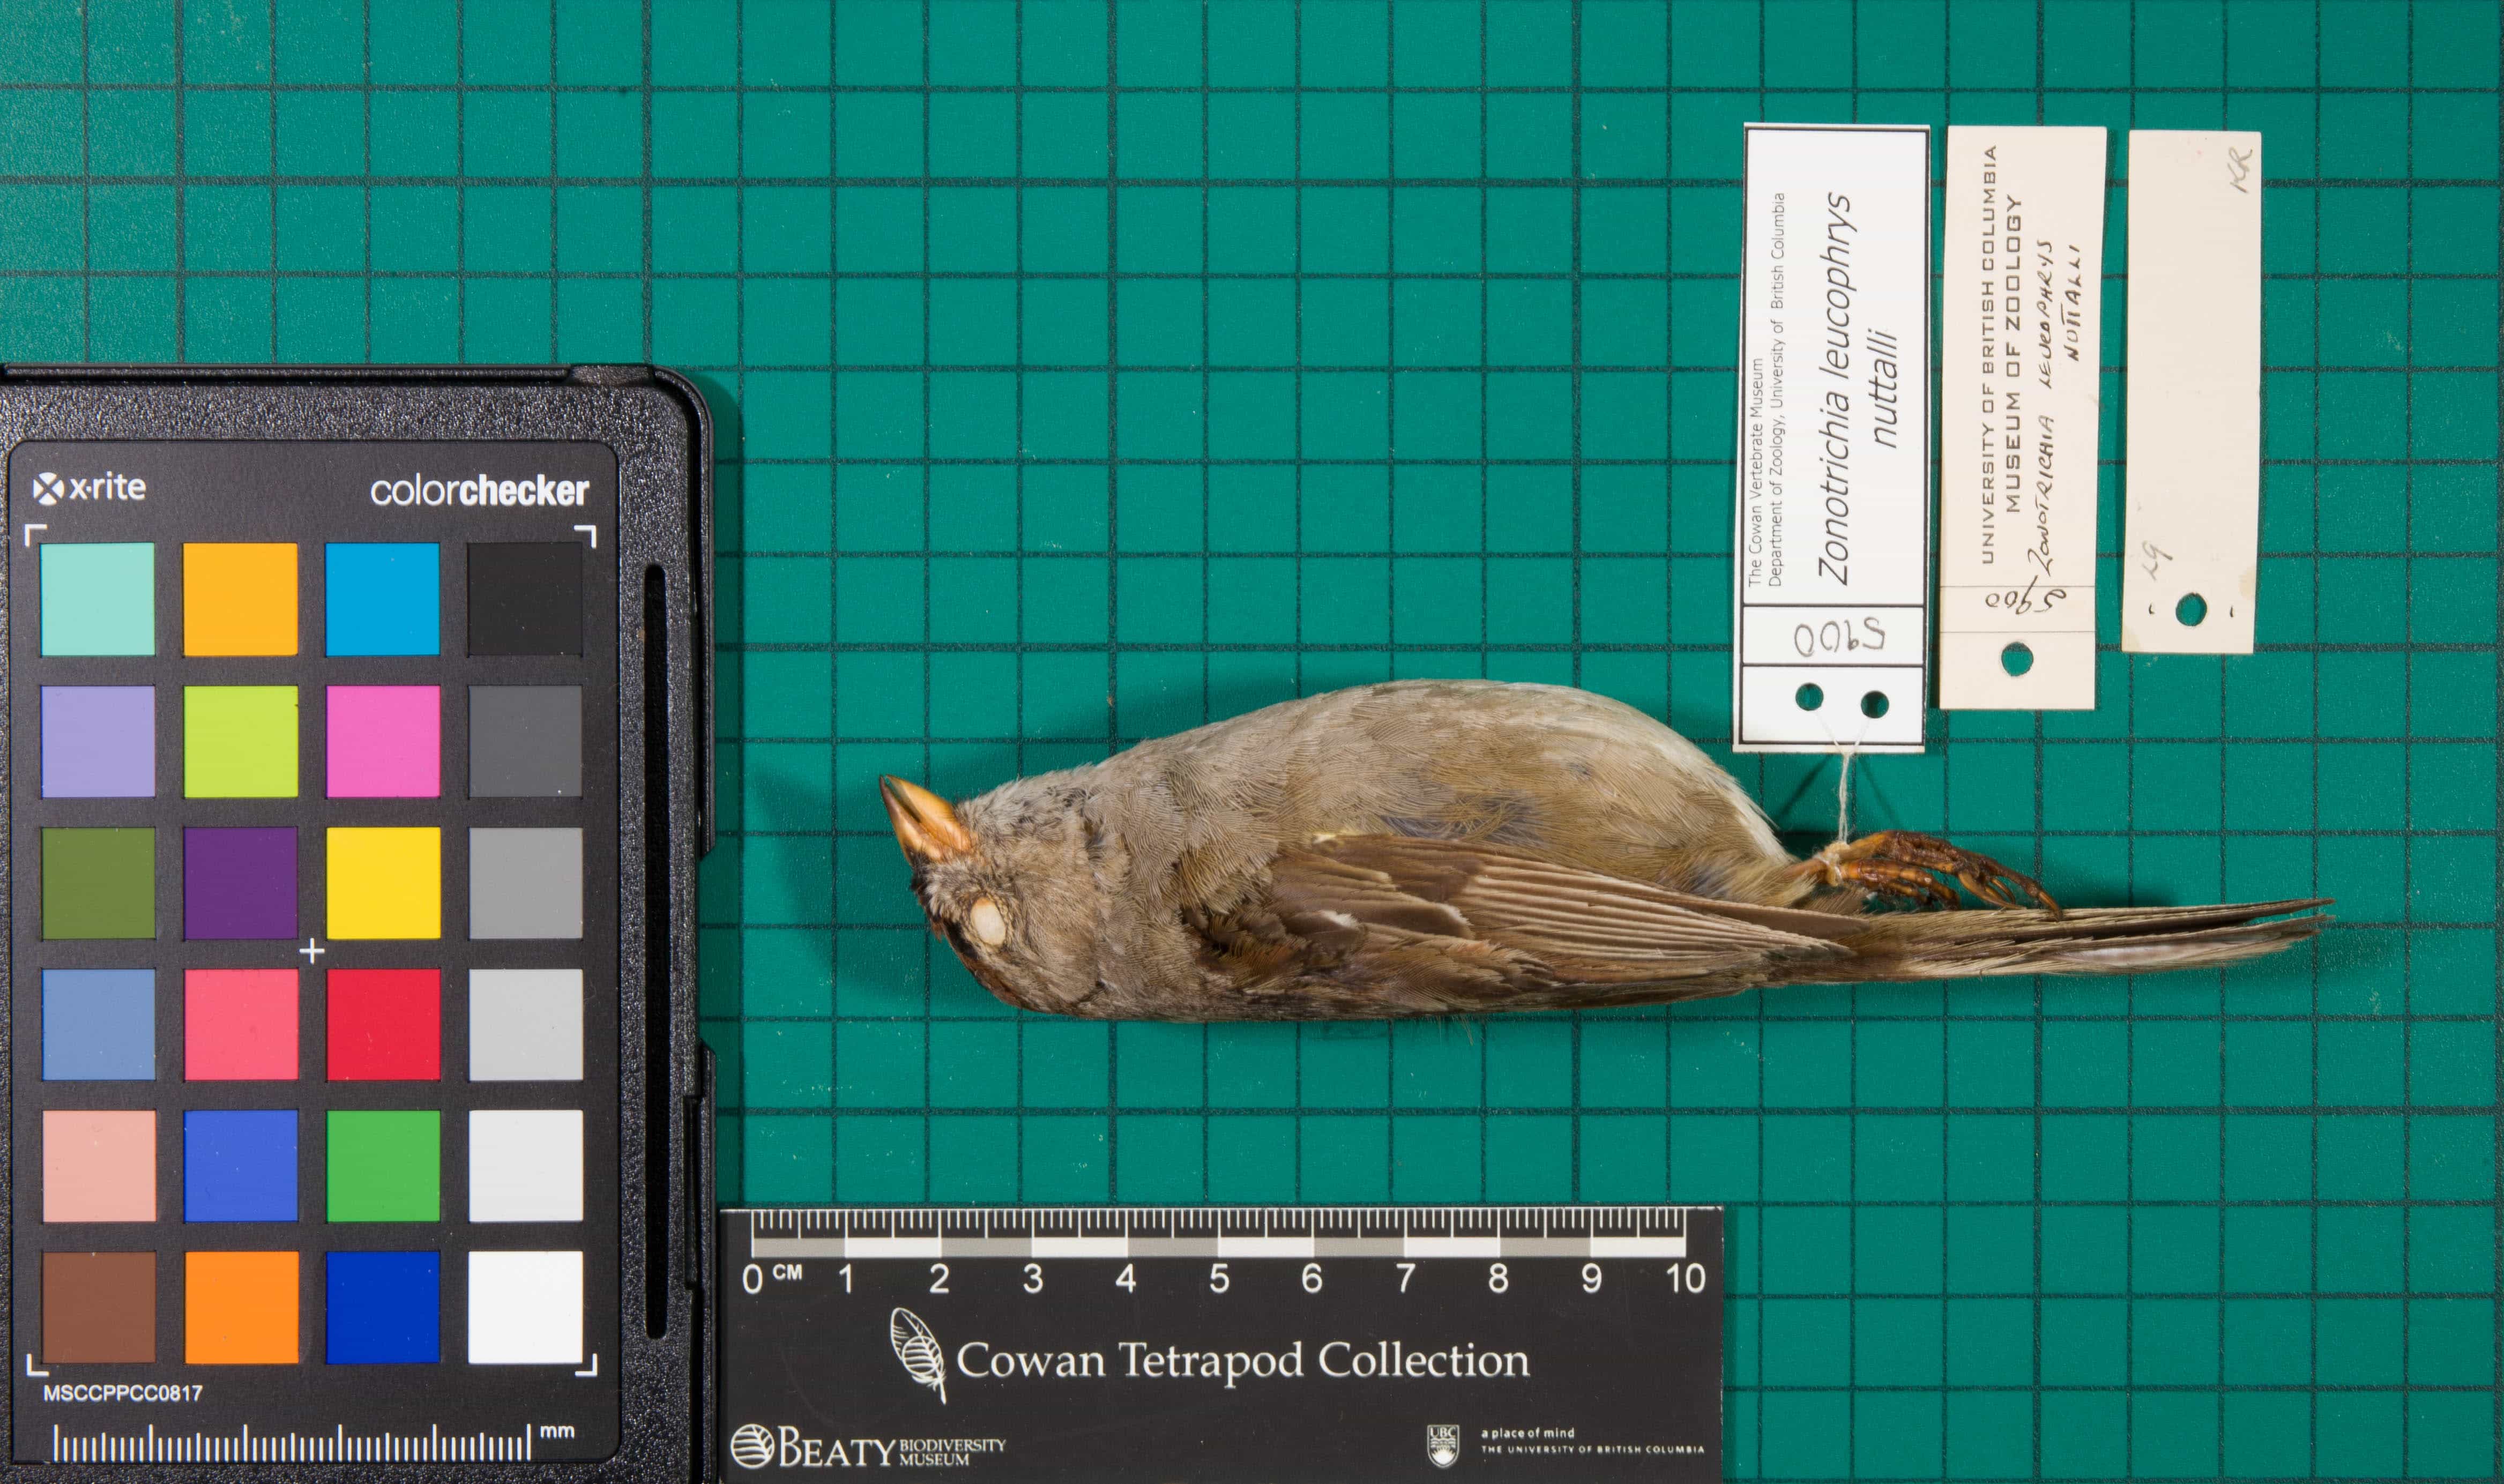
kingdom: Animalia
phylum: Chordata
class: Aves
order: Passeriformes
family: Passerellidae
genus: Zonotrichia
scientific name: Zonotrichia leucophrys
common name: White-crowned Sparrow
